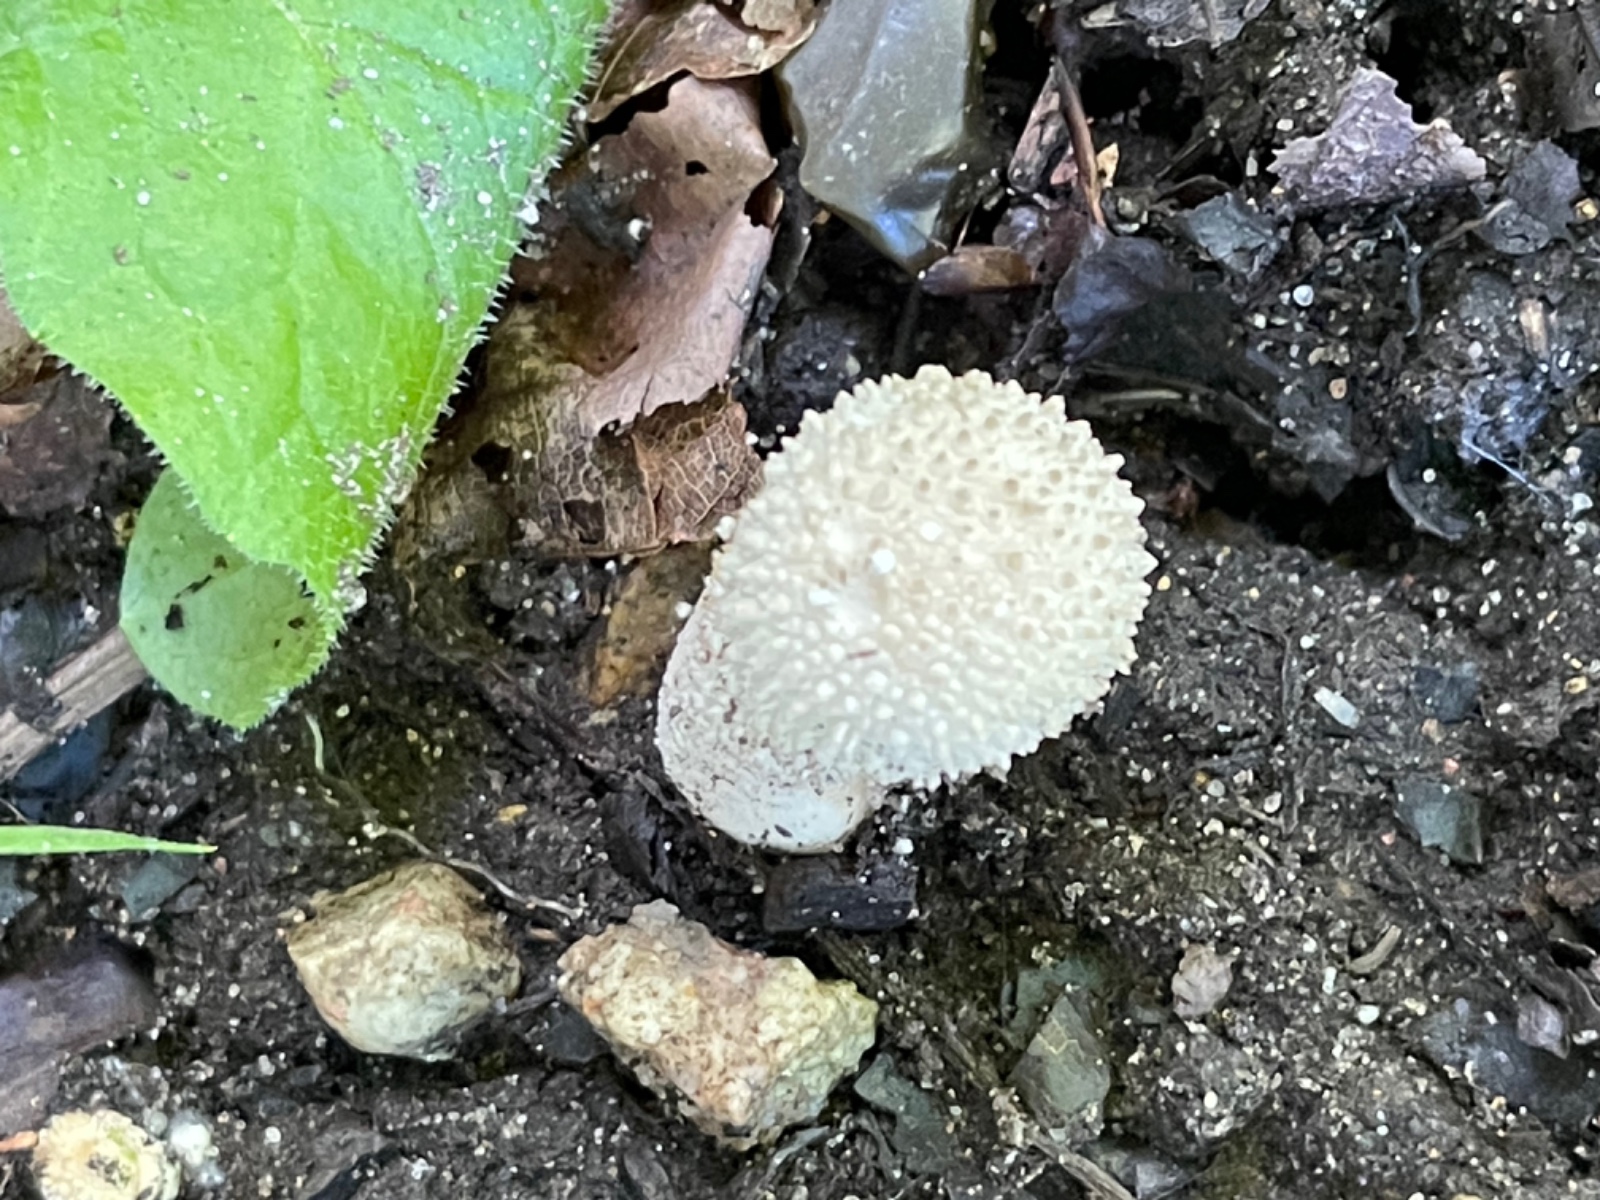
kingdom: Fungi
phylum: Basidiomycota
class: Agaricomycetes
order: Agaricales
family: Lycoperdaceae
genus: Lycoperdon
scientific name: Lycoperdon perlatum
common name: krystal-støvbold
